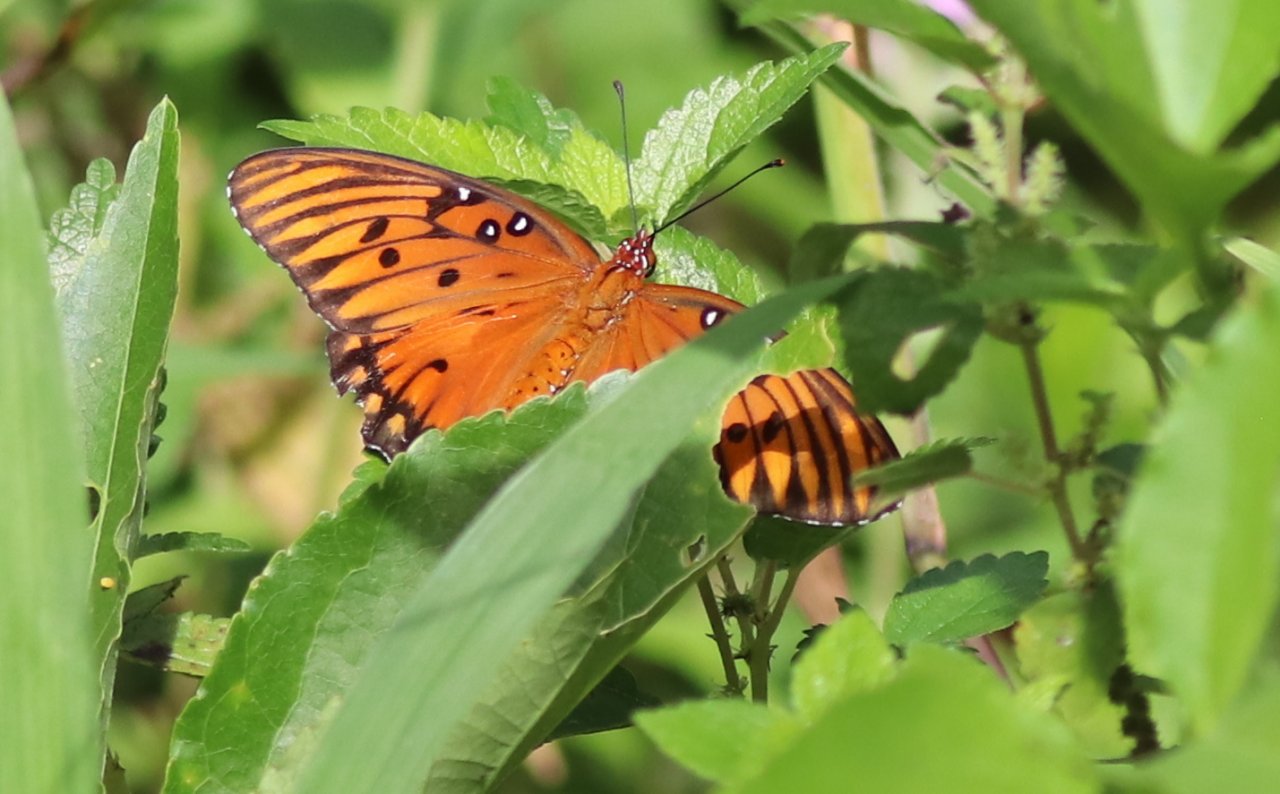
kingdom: Animalia
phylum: Arthropoda
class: Insecta
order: Lepidoptera
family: Nymphalidae
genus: Dione
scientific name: Dione vanillae
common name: Gulf Fritillary
